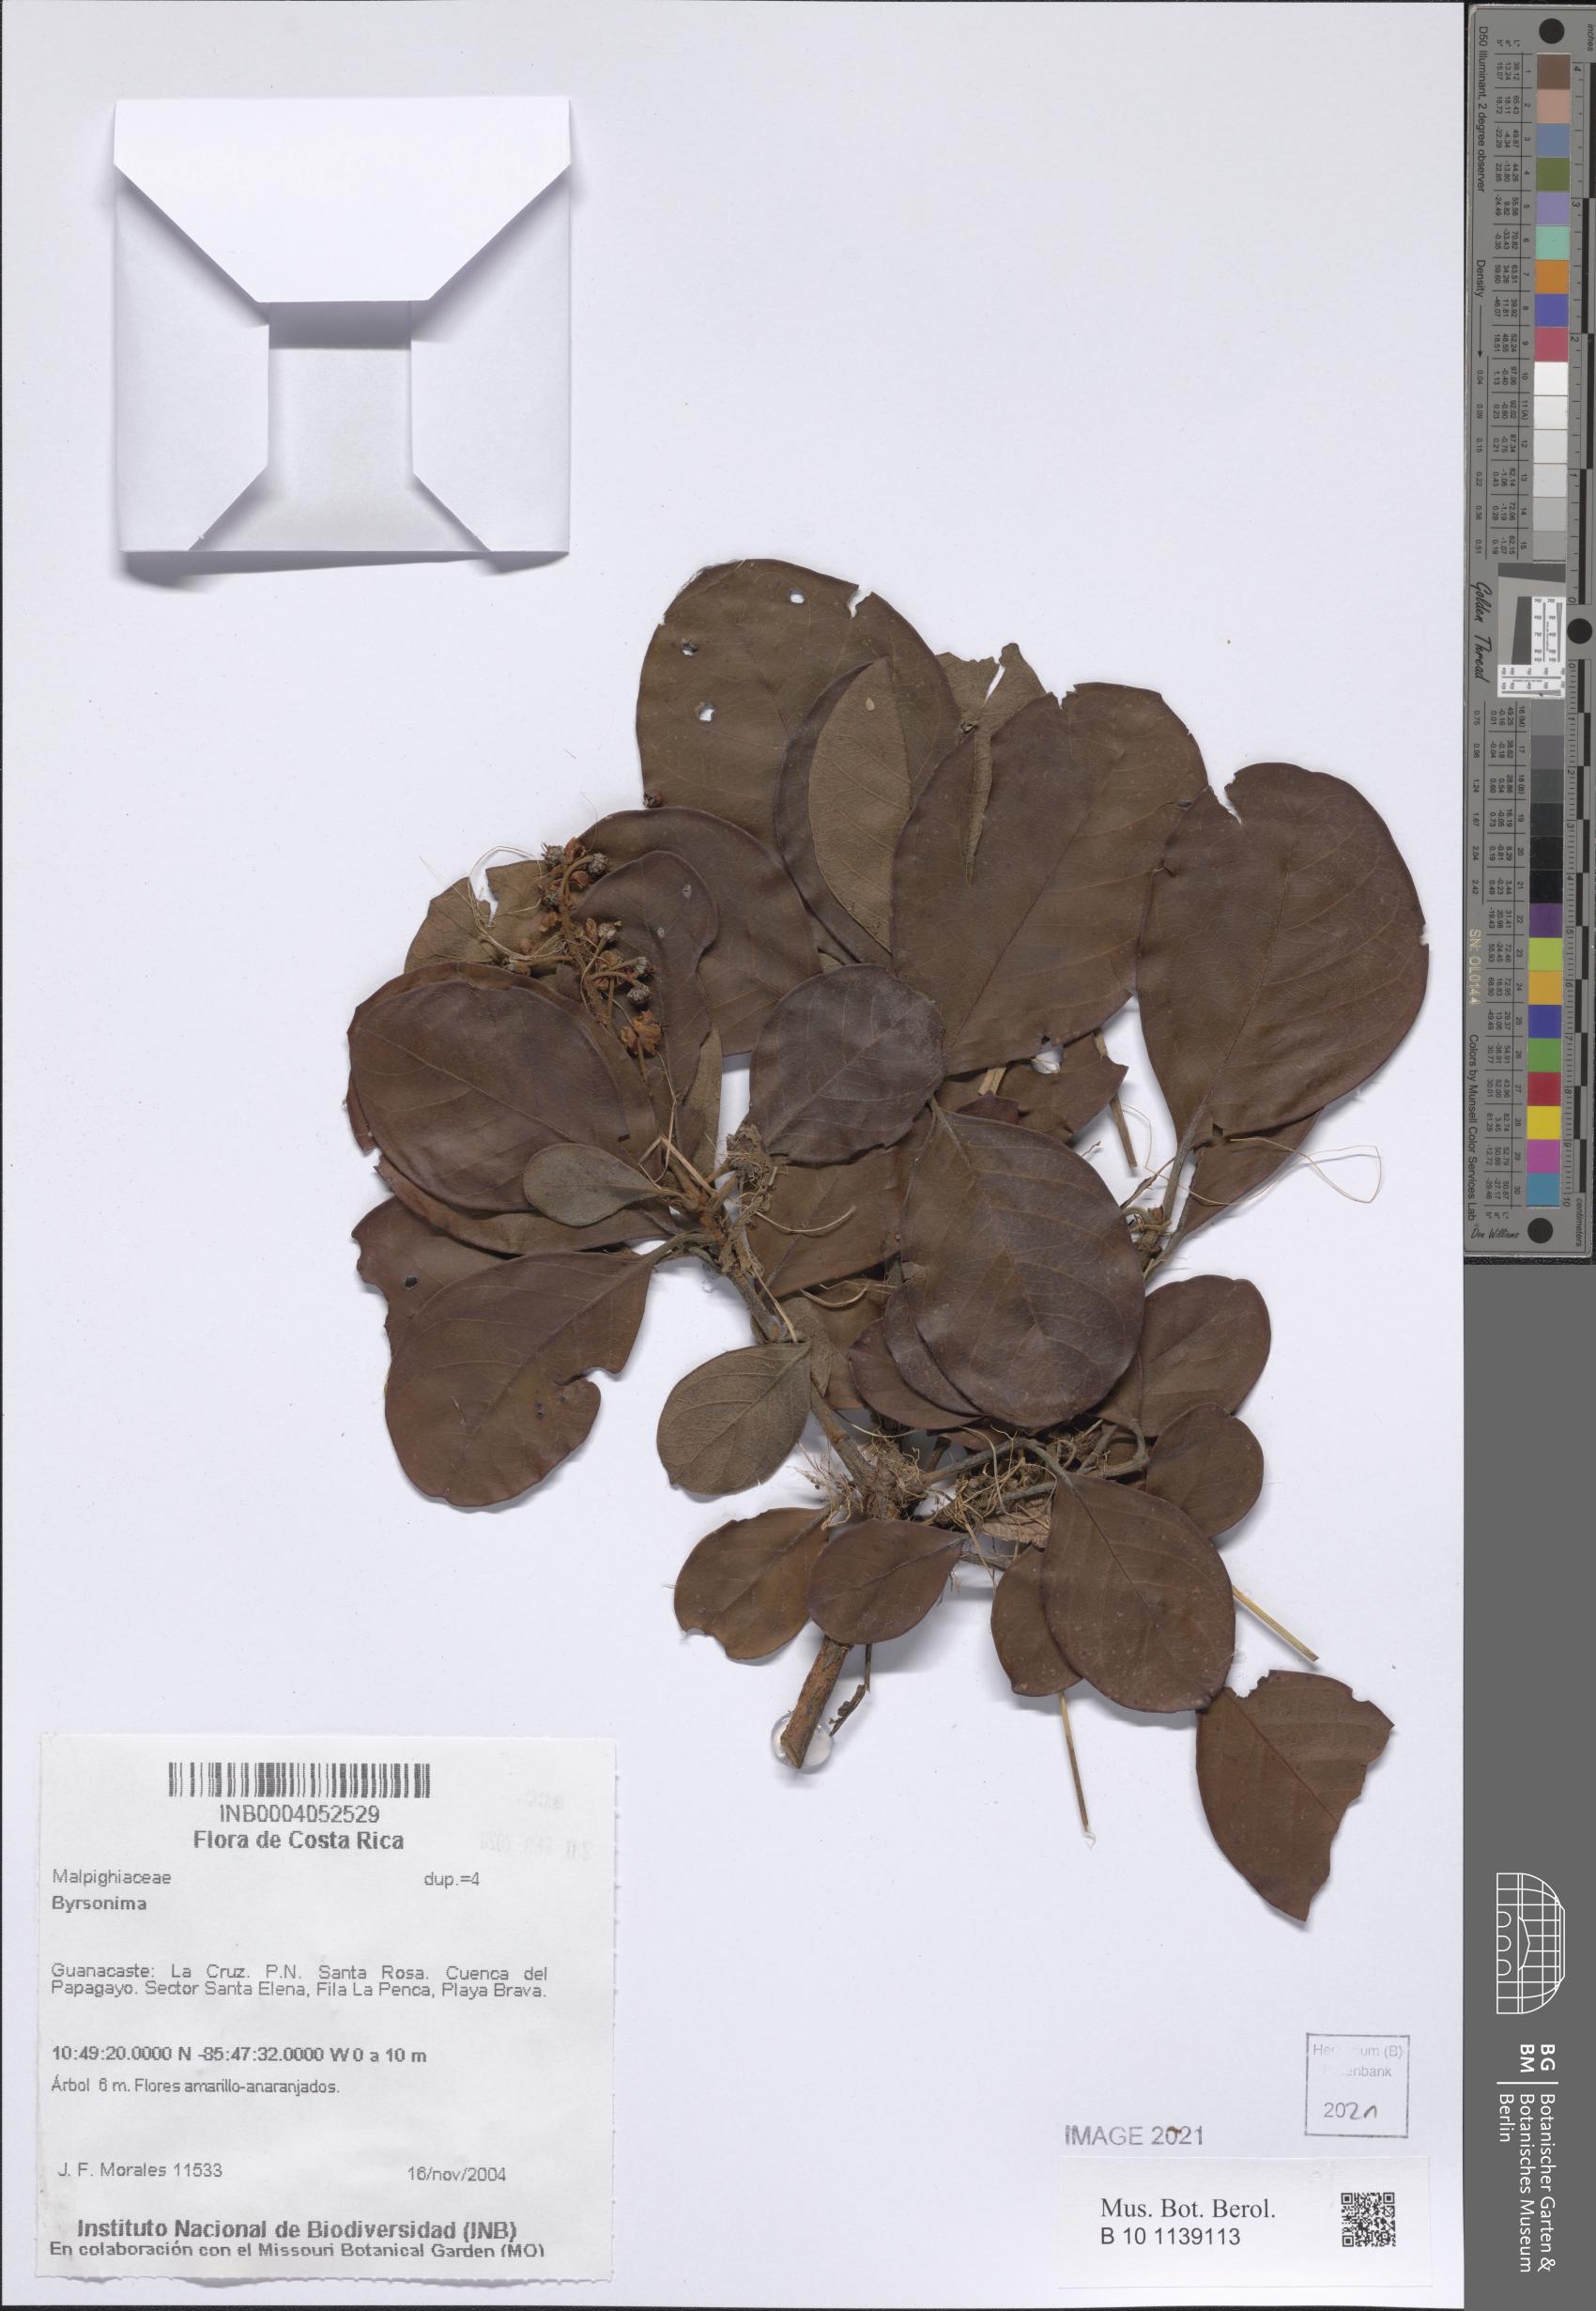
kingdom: Plantae
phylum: Tracheophyta
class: Magnoliopsida
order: Malpighiales
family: Malpighiaceae
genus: Byrsonima
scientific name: Byrsonima
